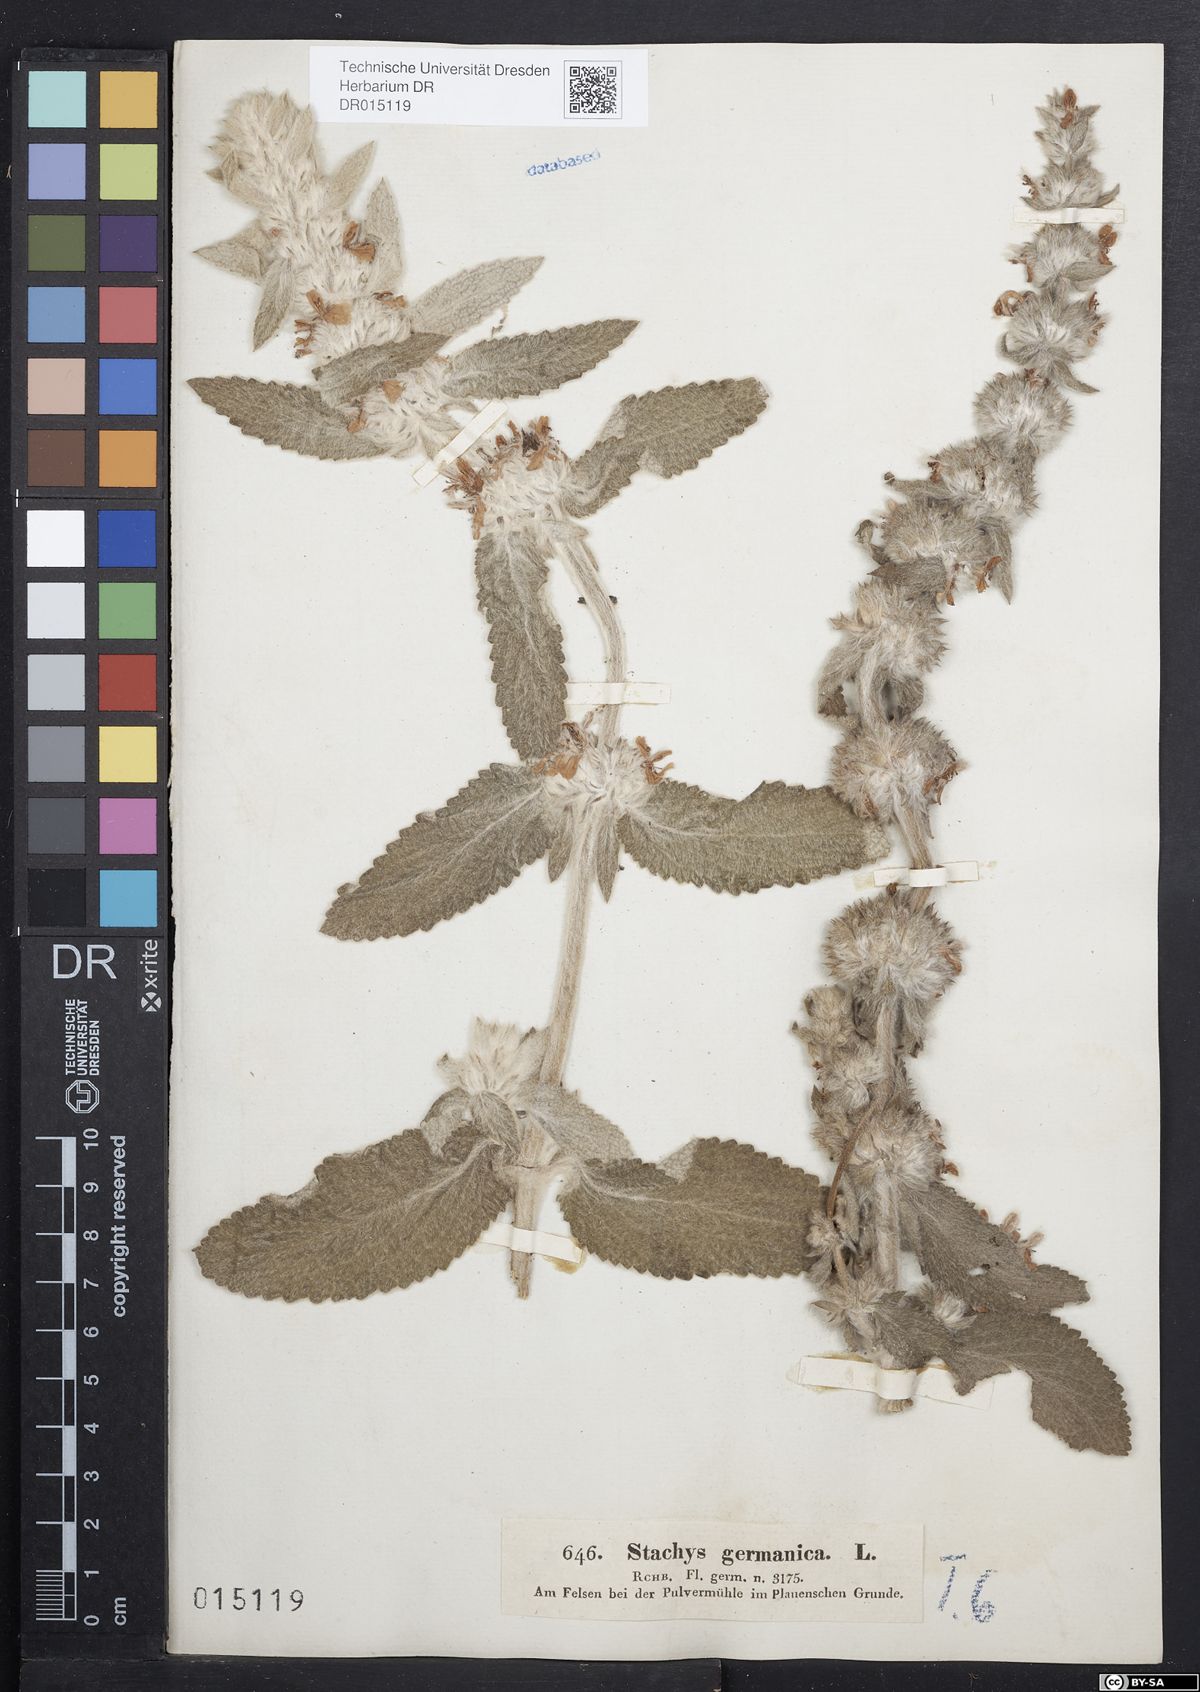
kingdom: Plantae
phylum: Tracheophyta
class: Magnoliopsida
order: Lamiales
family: Lamiaceae
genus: Stachys
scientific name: Stachys germanica
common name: Downy woundwort
